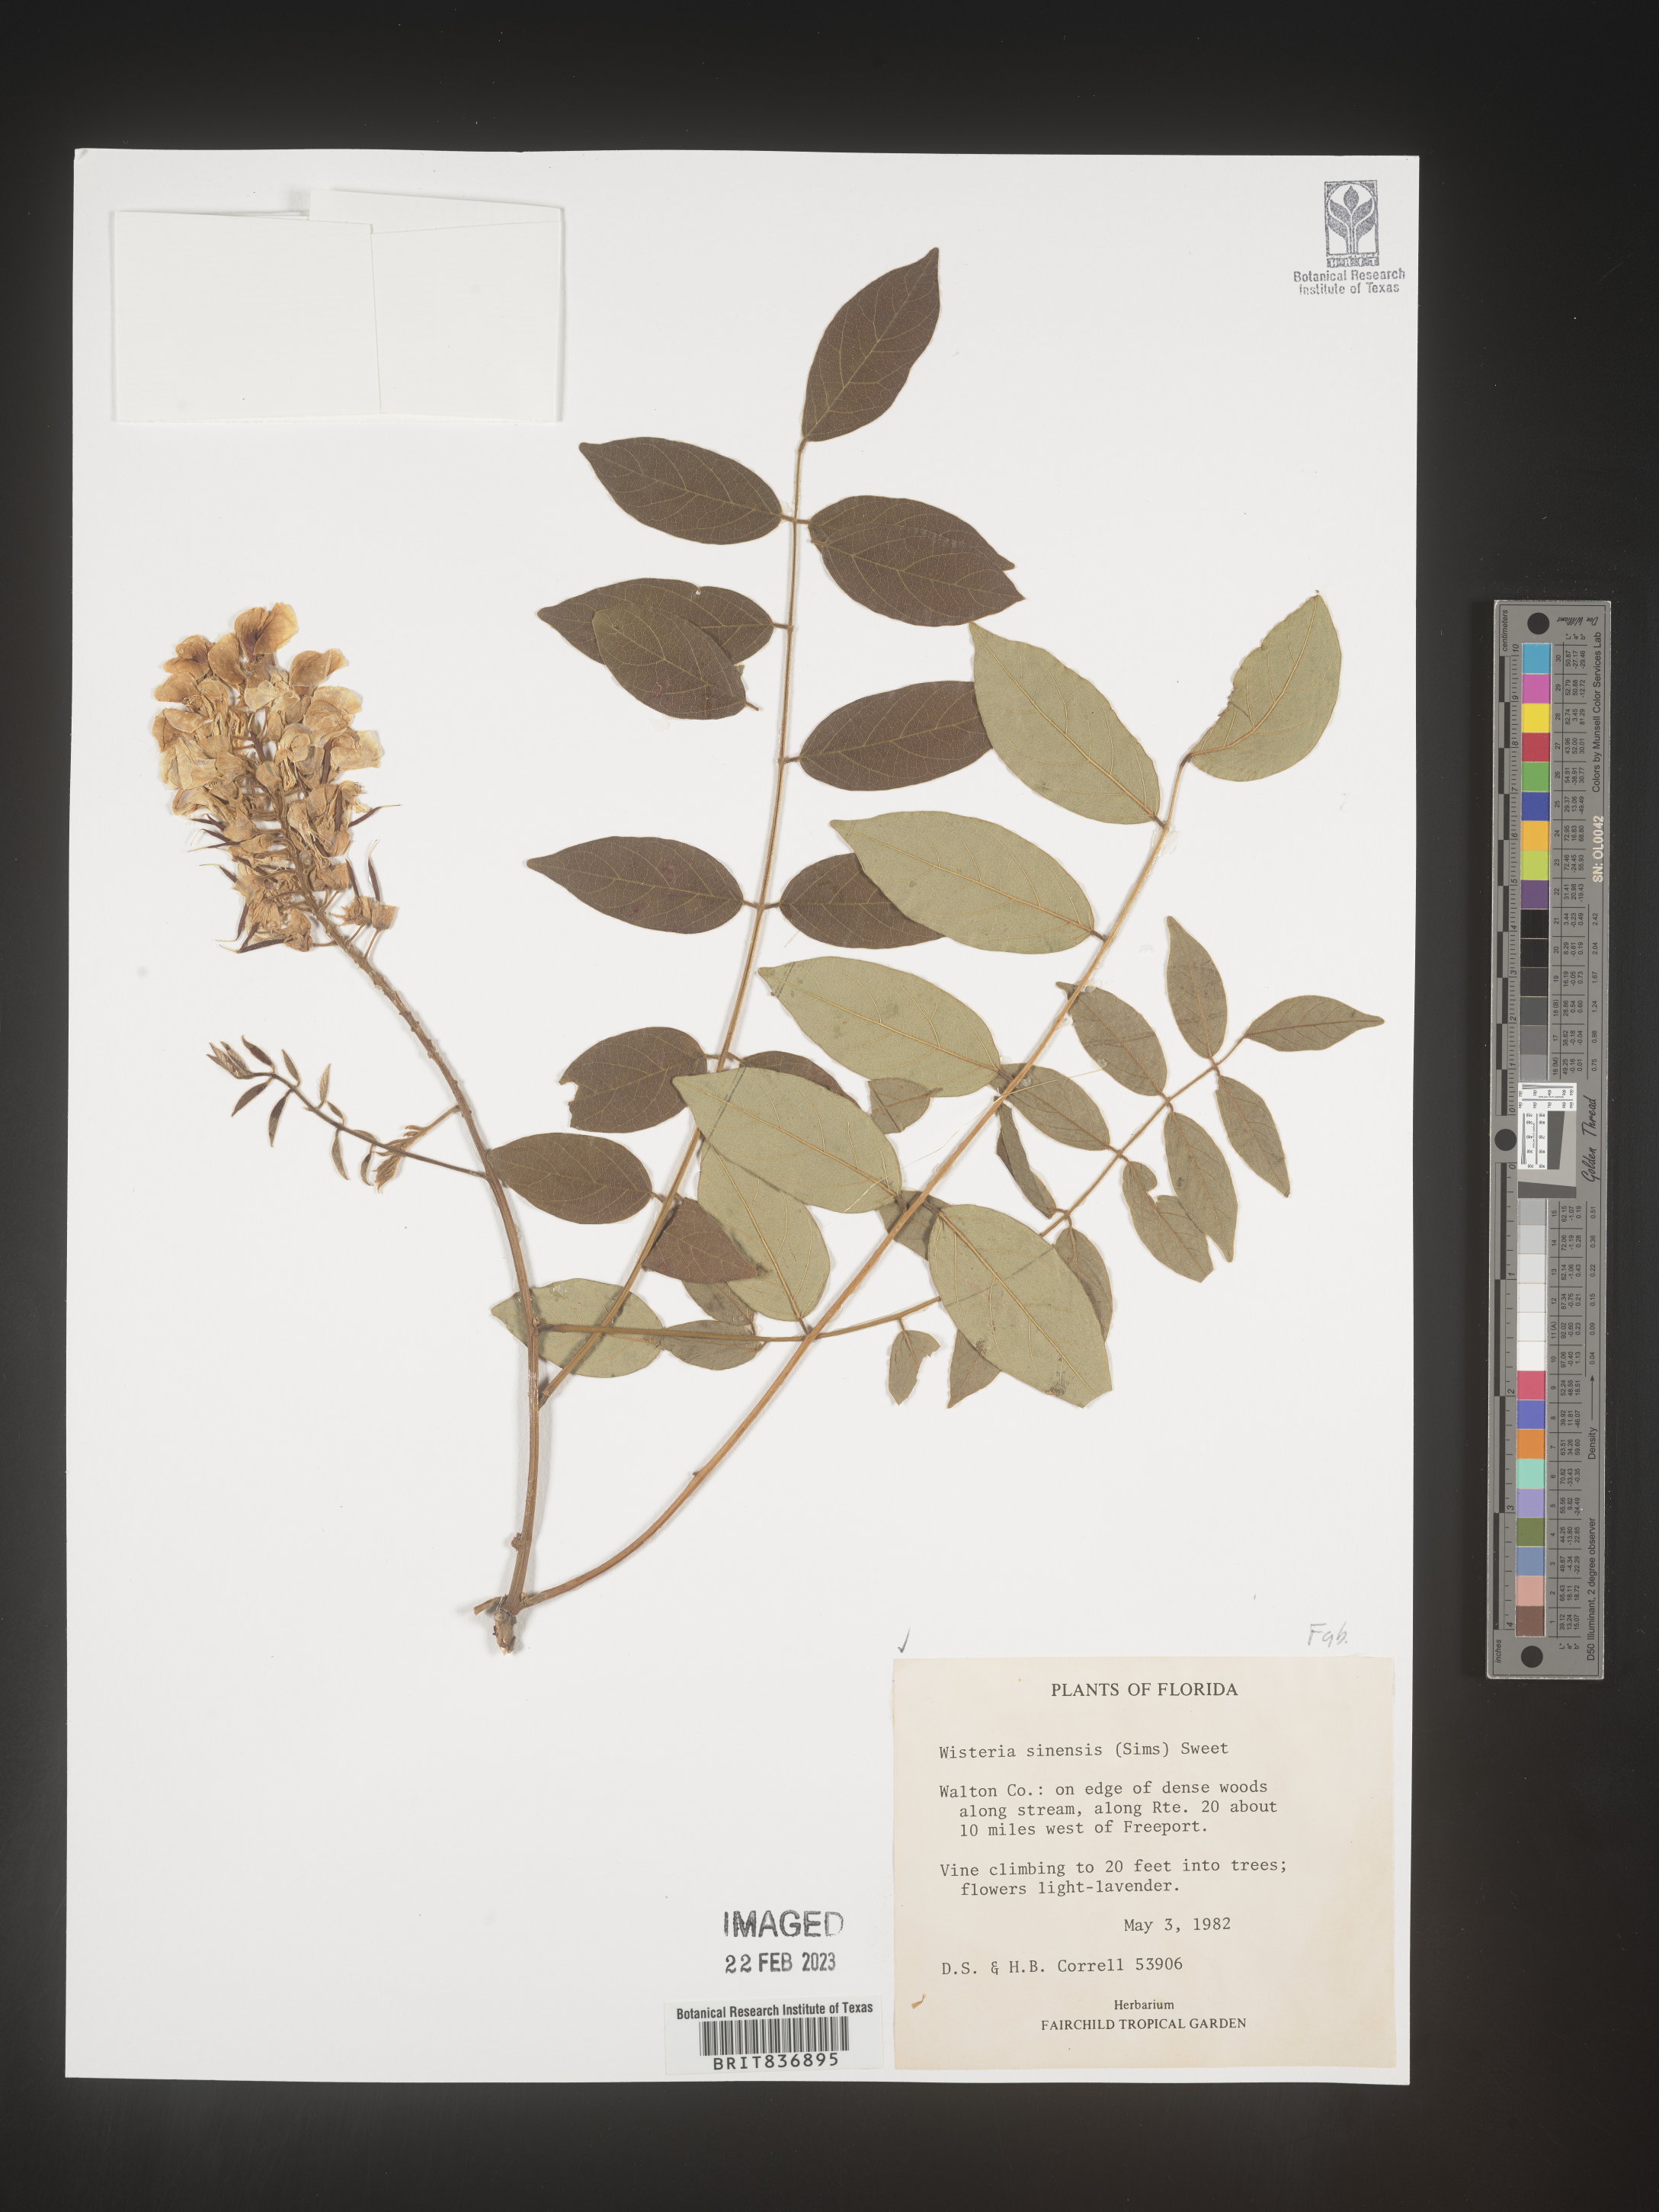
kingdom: Plantae
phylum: Tracheophyta
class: Magnoliopsida
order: Fabales
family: Fabaceae
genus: Wisteria
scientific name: Wisteria sinensis
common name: Chinese wisteria
